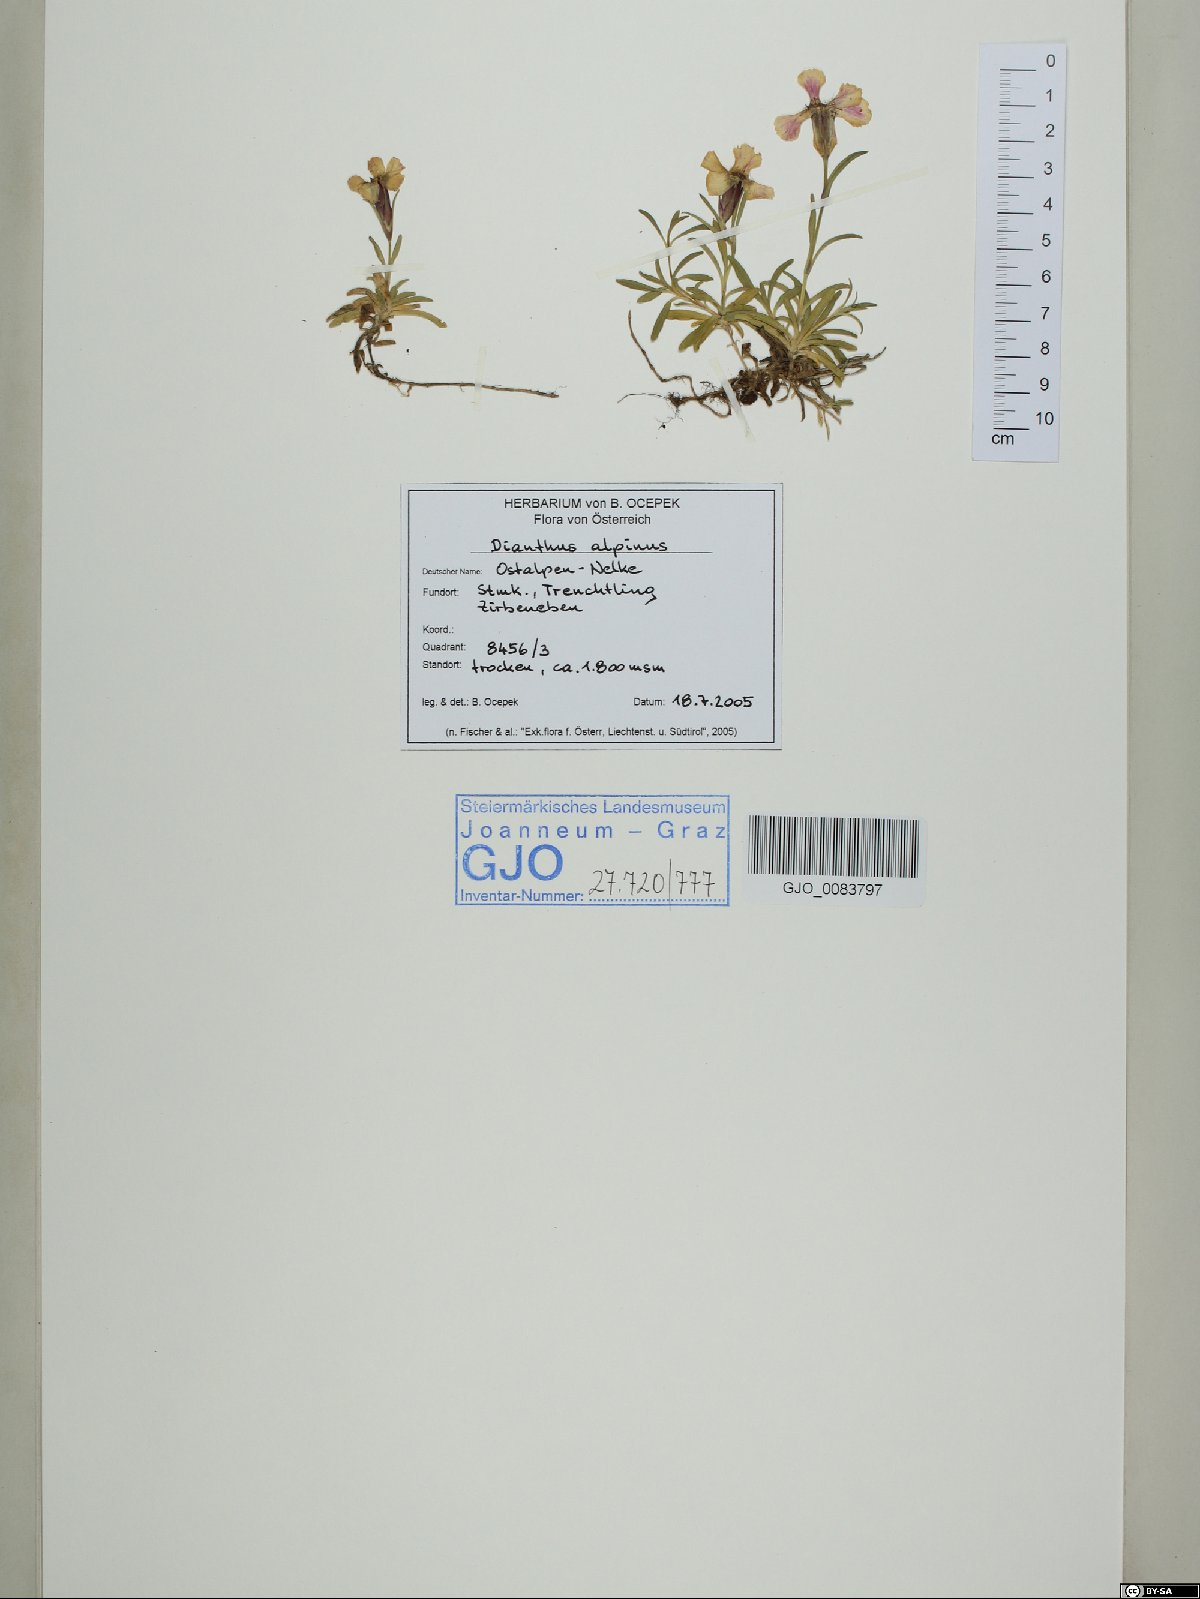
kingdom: Plantae
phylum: Tracheophyta
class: Magnoliopsida
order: Caryophyllales
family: Caryophyllaceae
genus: Dianthus
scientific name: Dianthus alpinus
